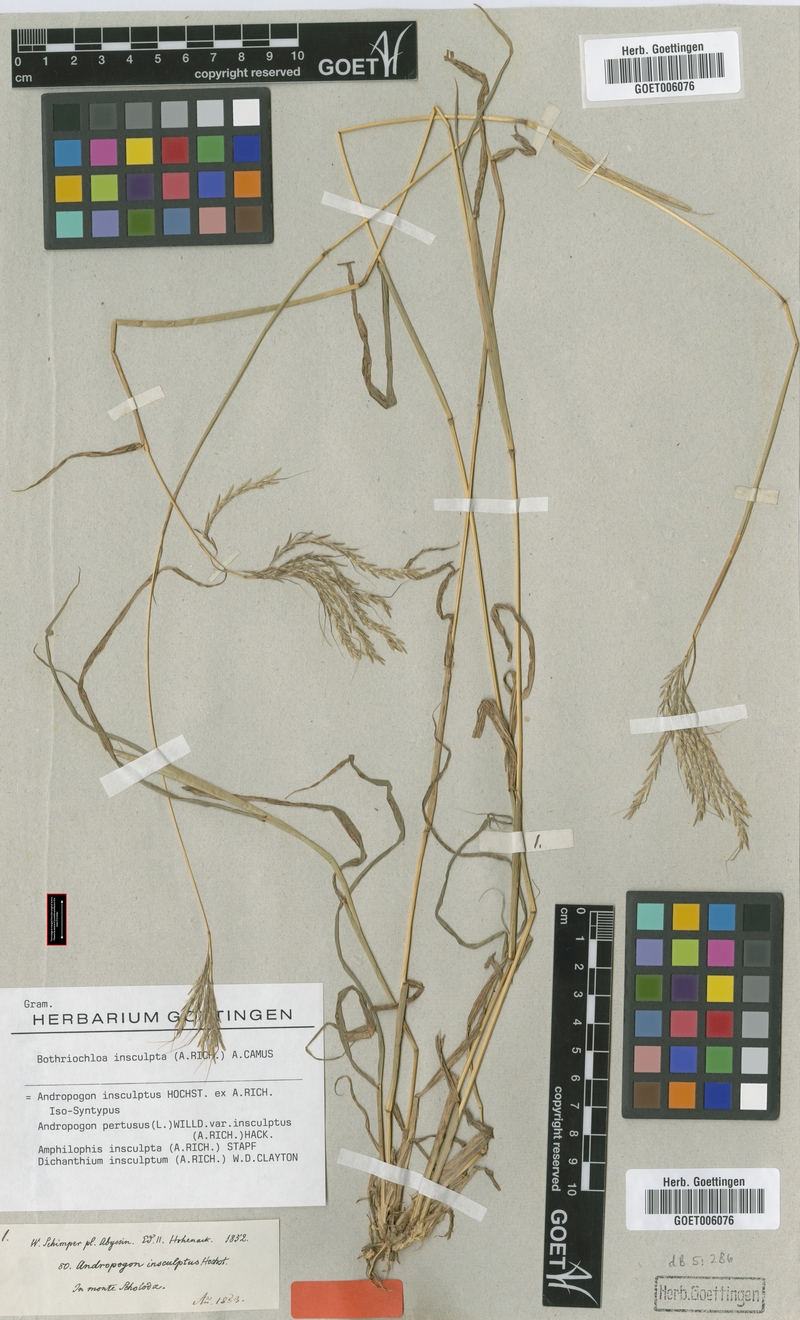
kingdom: Plantae
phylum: Tracheophyta
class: Liliopsida
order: Poales
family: Poaceae
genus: Bothriochloa
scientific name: Bothriochloa insculpta
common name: Creeping-bluegrass
